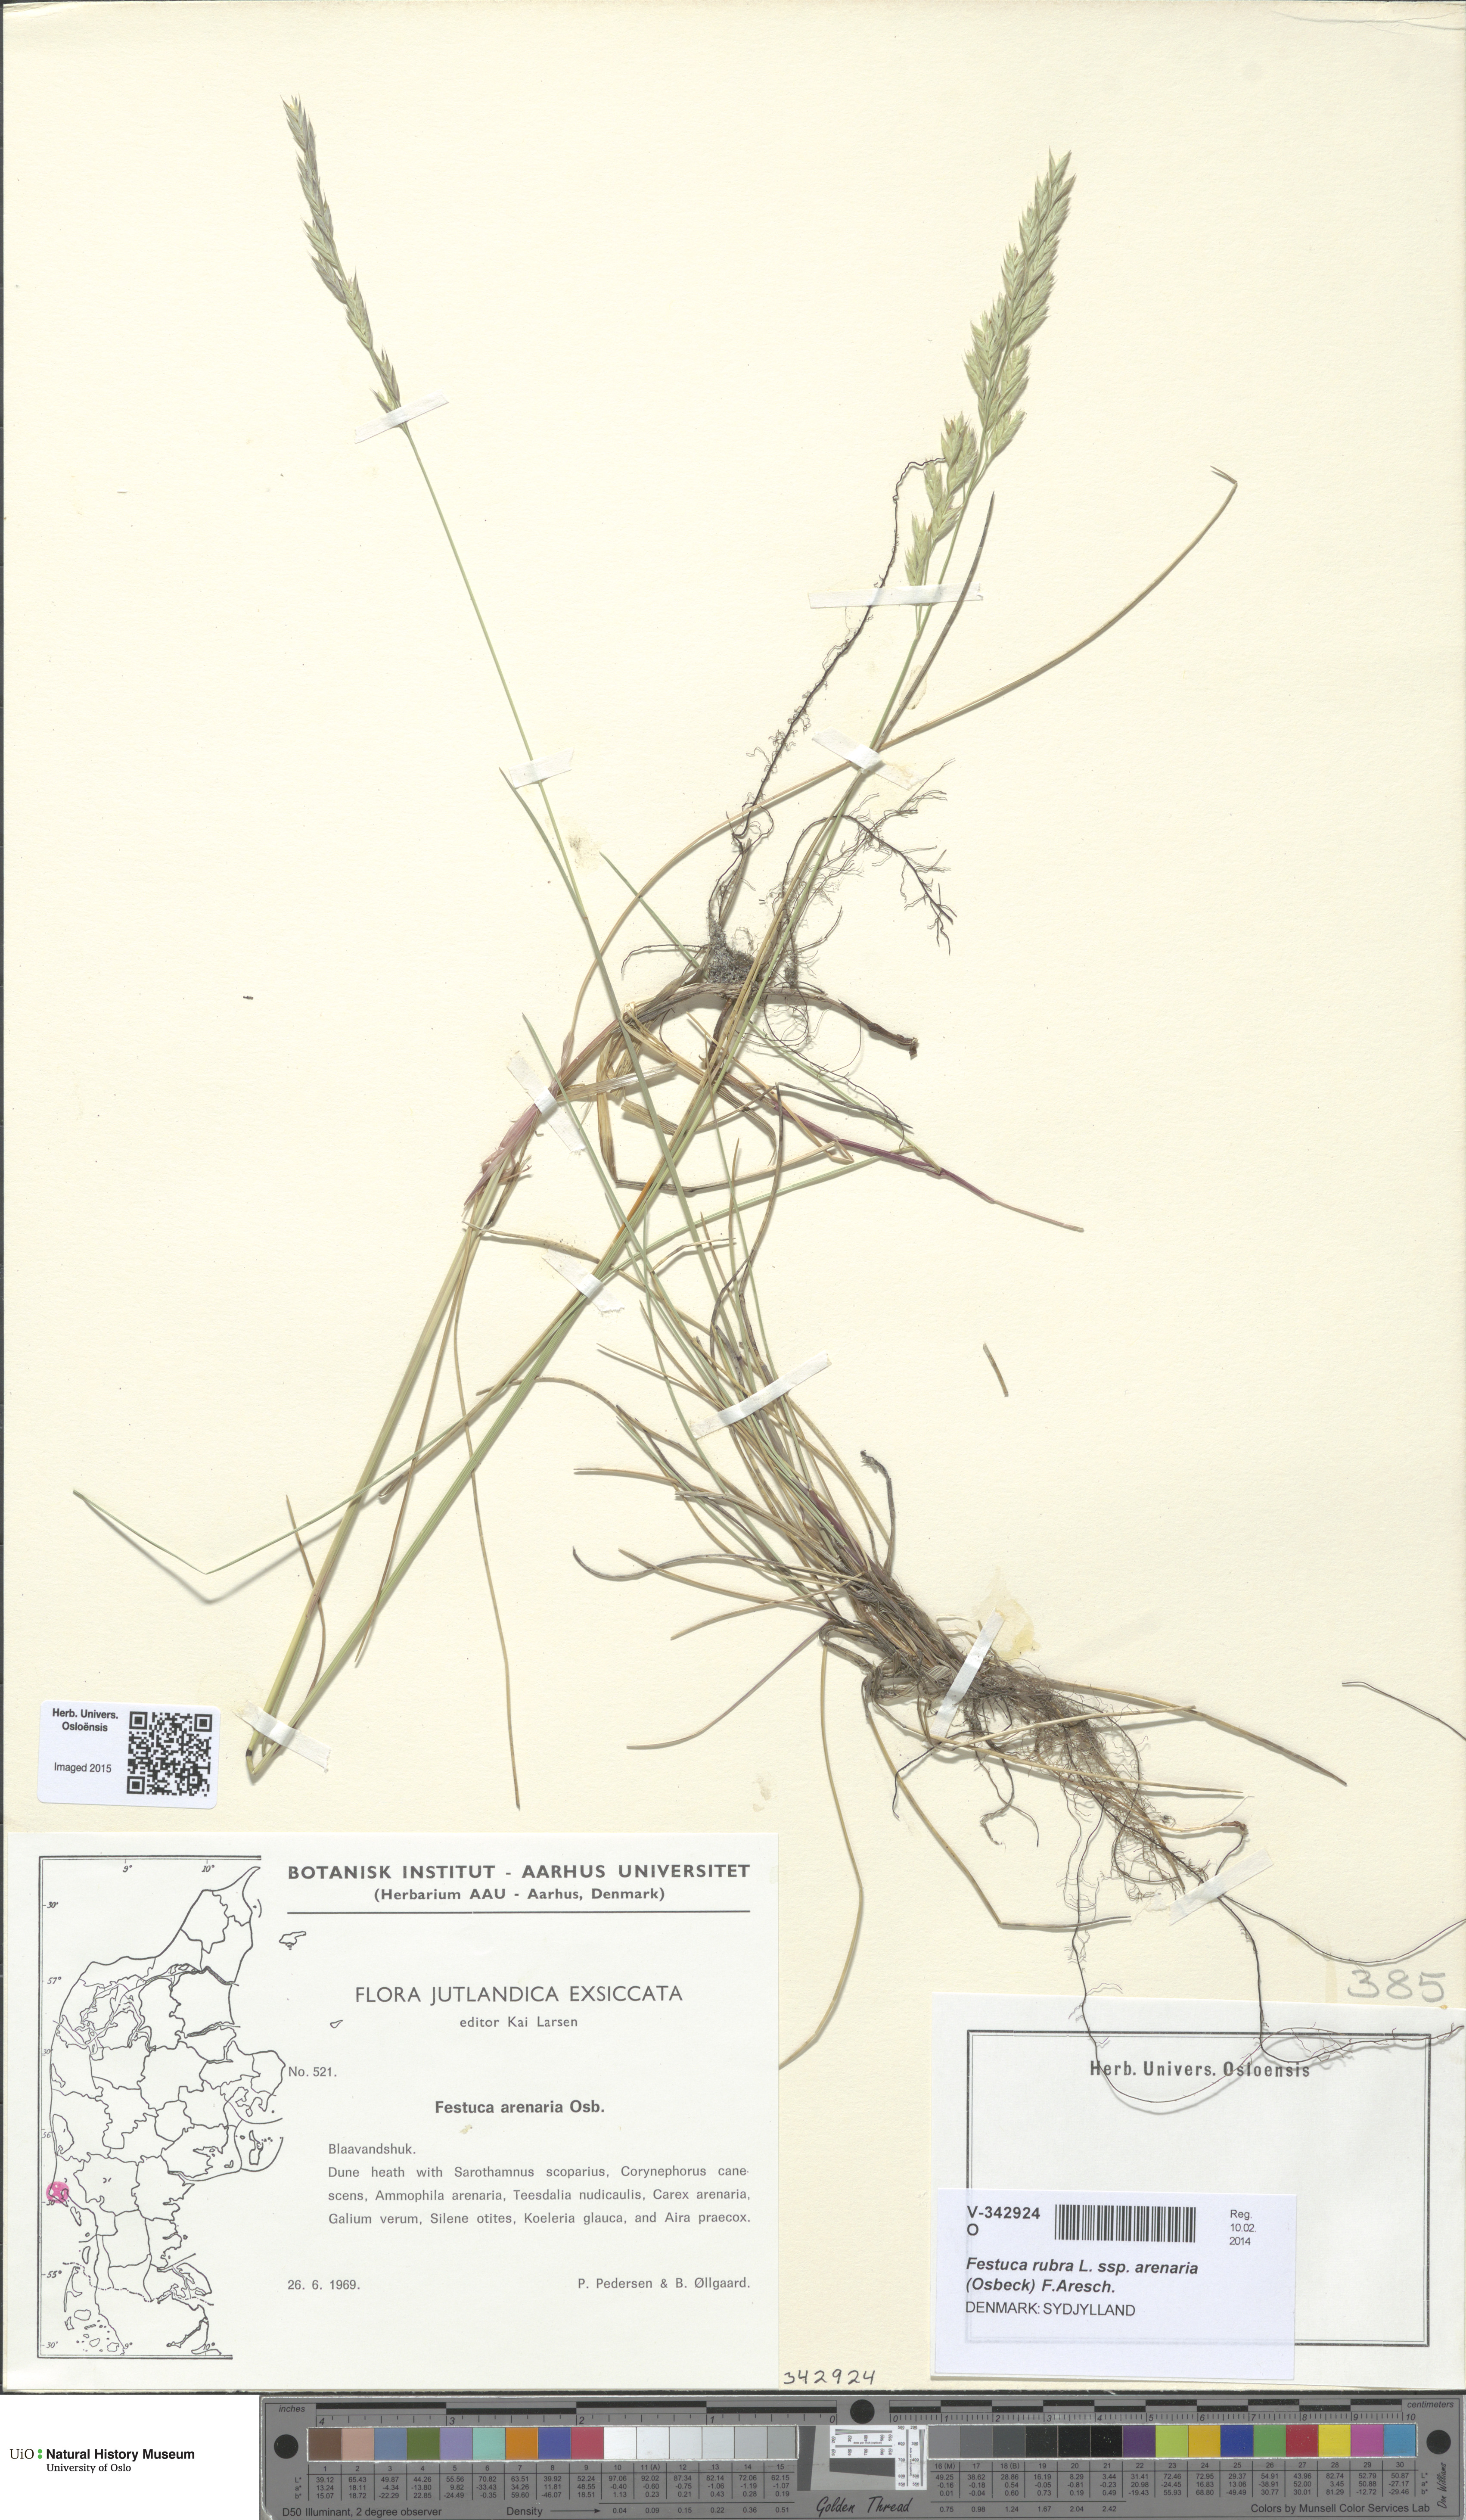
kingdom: Plantae
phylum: Tracheophyta
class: Liliopsida
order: Poales
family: Poaceae
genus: Festuca
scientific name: Festuca rubra
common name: Red fescue
